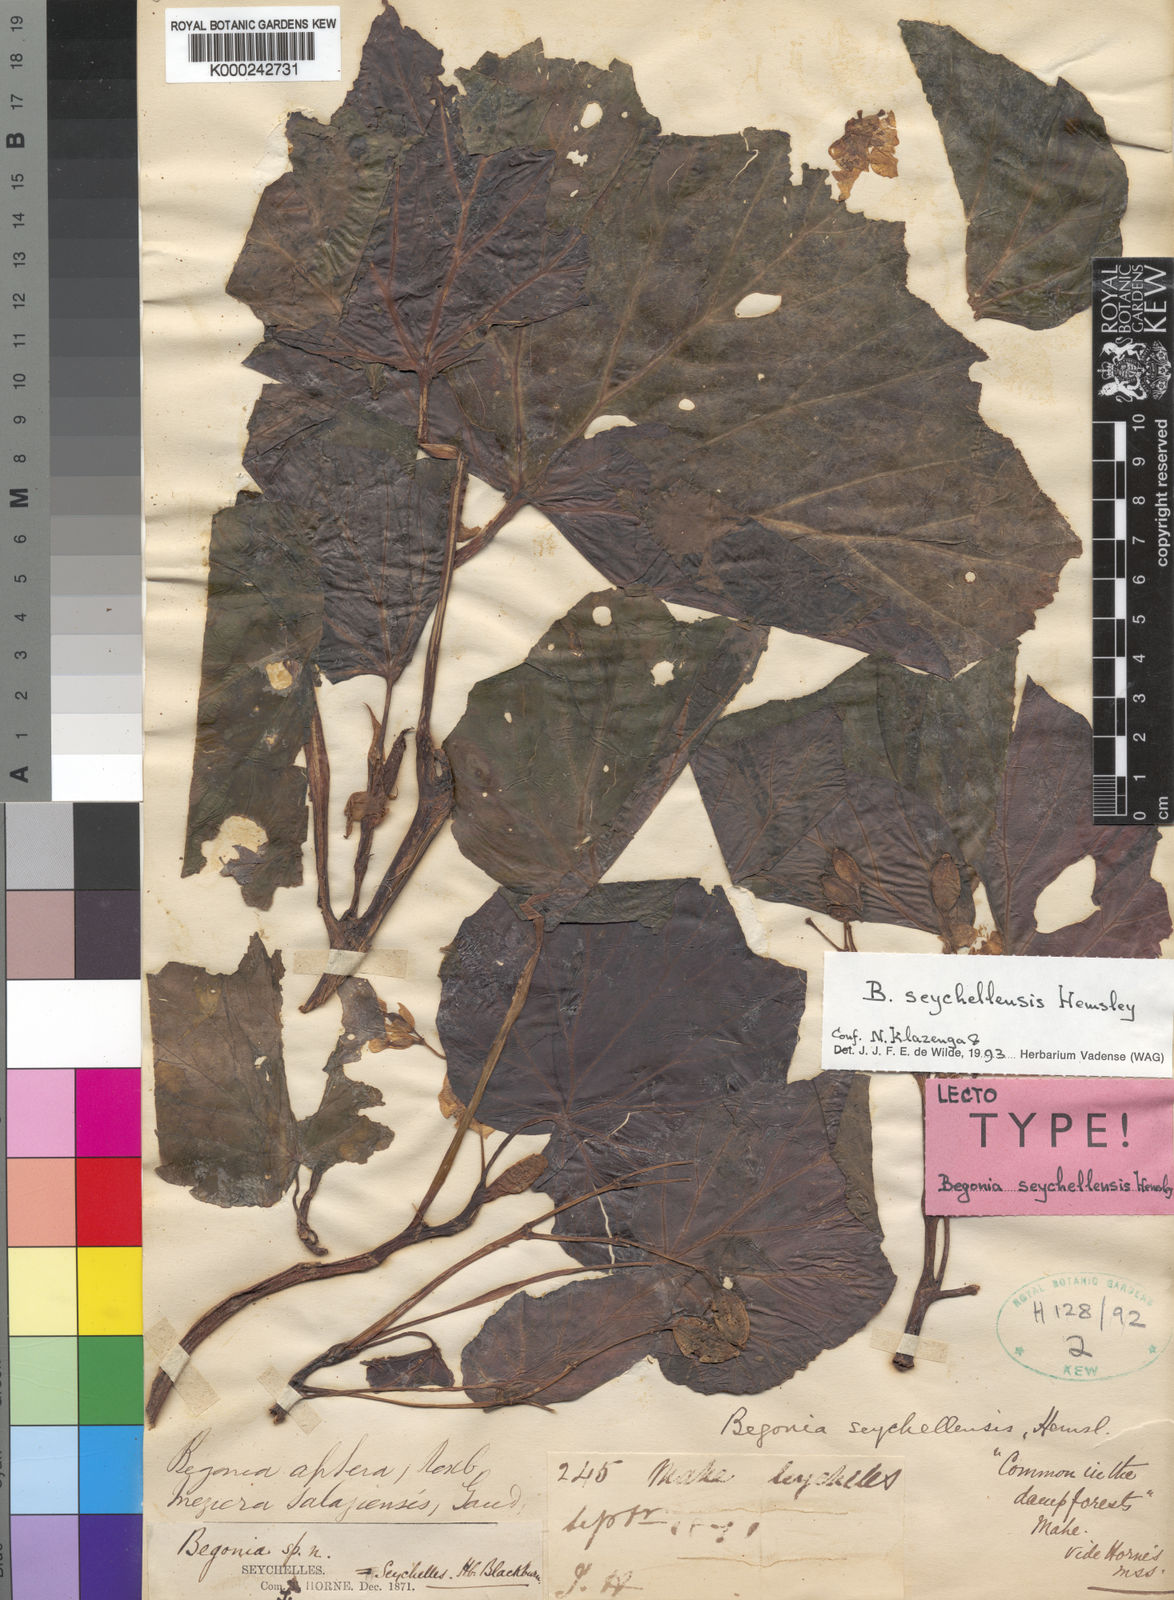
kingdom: Plantae
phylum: Tracheophyta
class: Magnoliopsida
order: Cucurbitales
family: Begoniaceae
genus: Begonia
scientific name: Begonia comorensis
